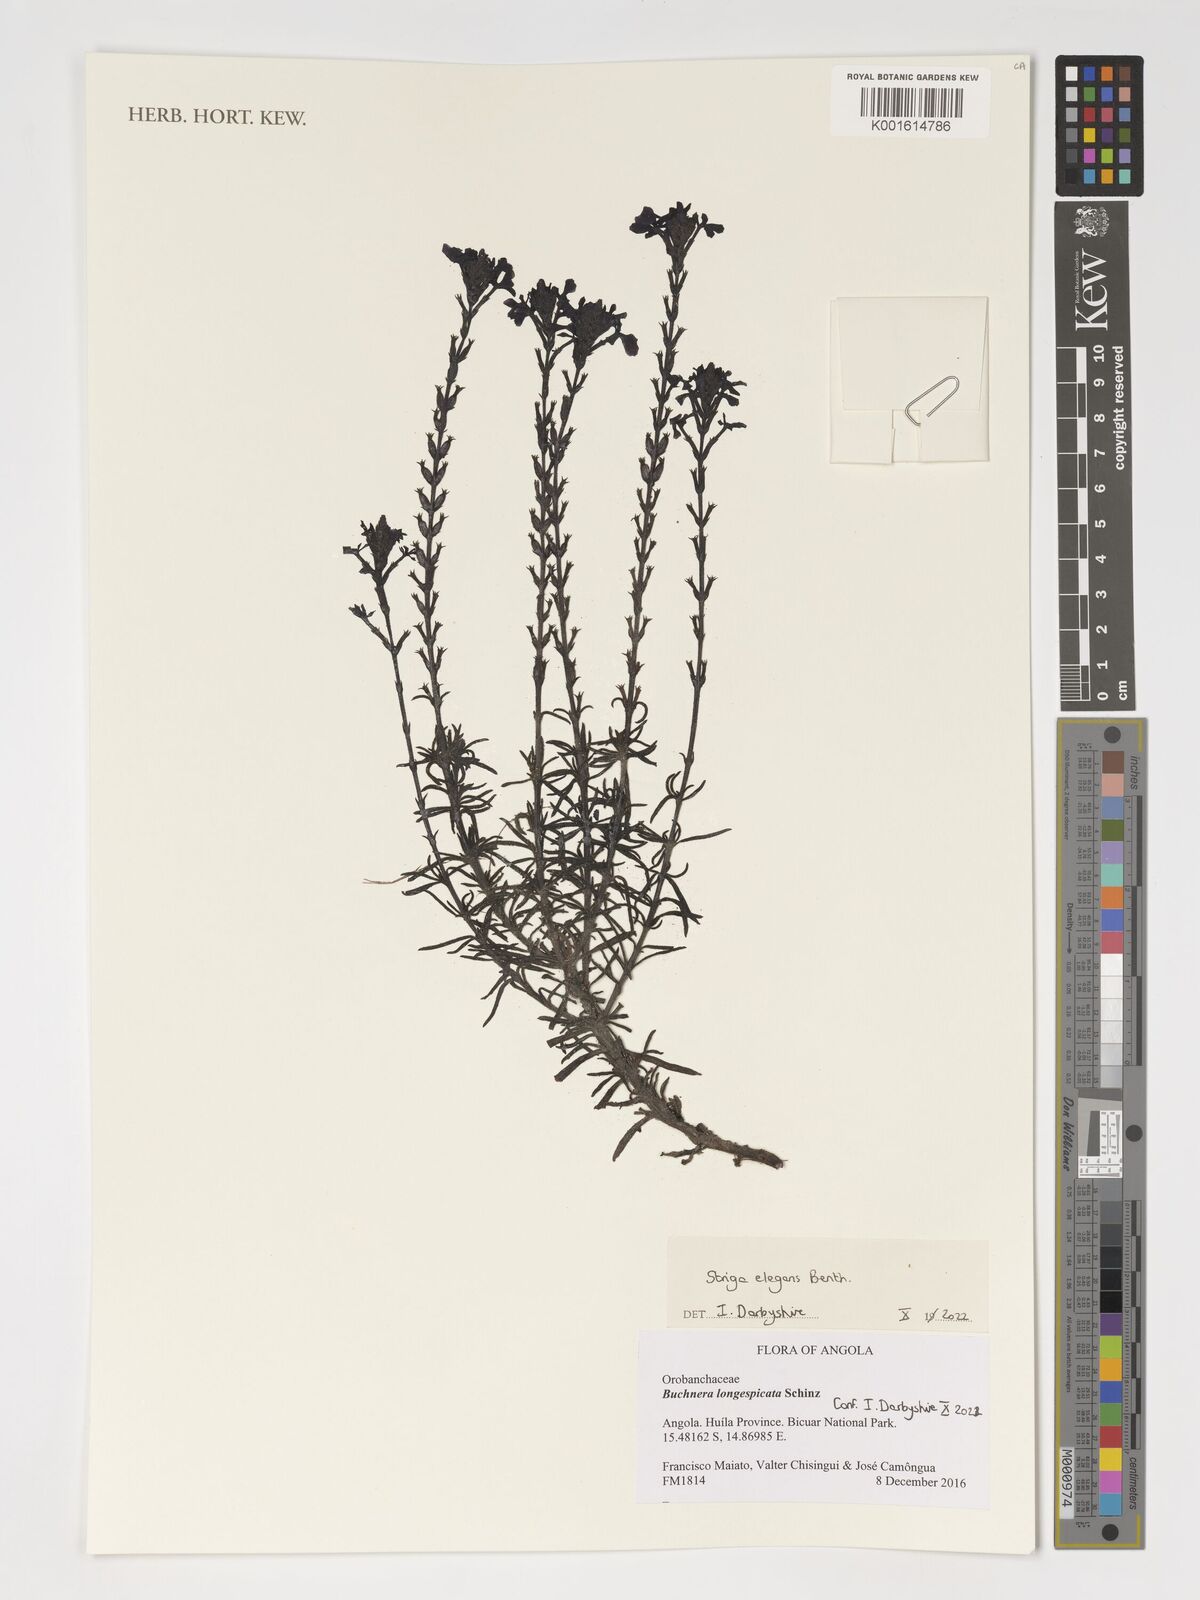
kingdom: Plantae
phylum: Tracheophyta
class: Magnoliopsida
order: Lamiales
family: Orobanchaceae
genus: Striga
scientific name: Striga elegans
